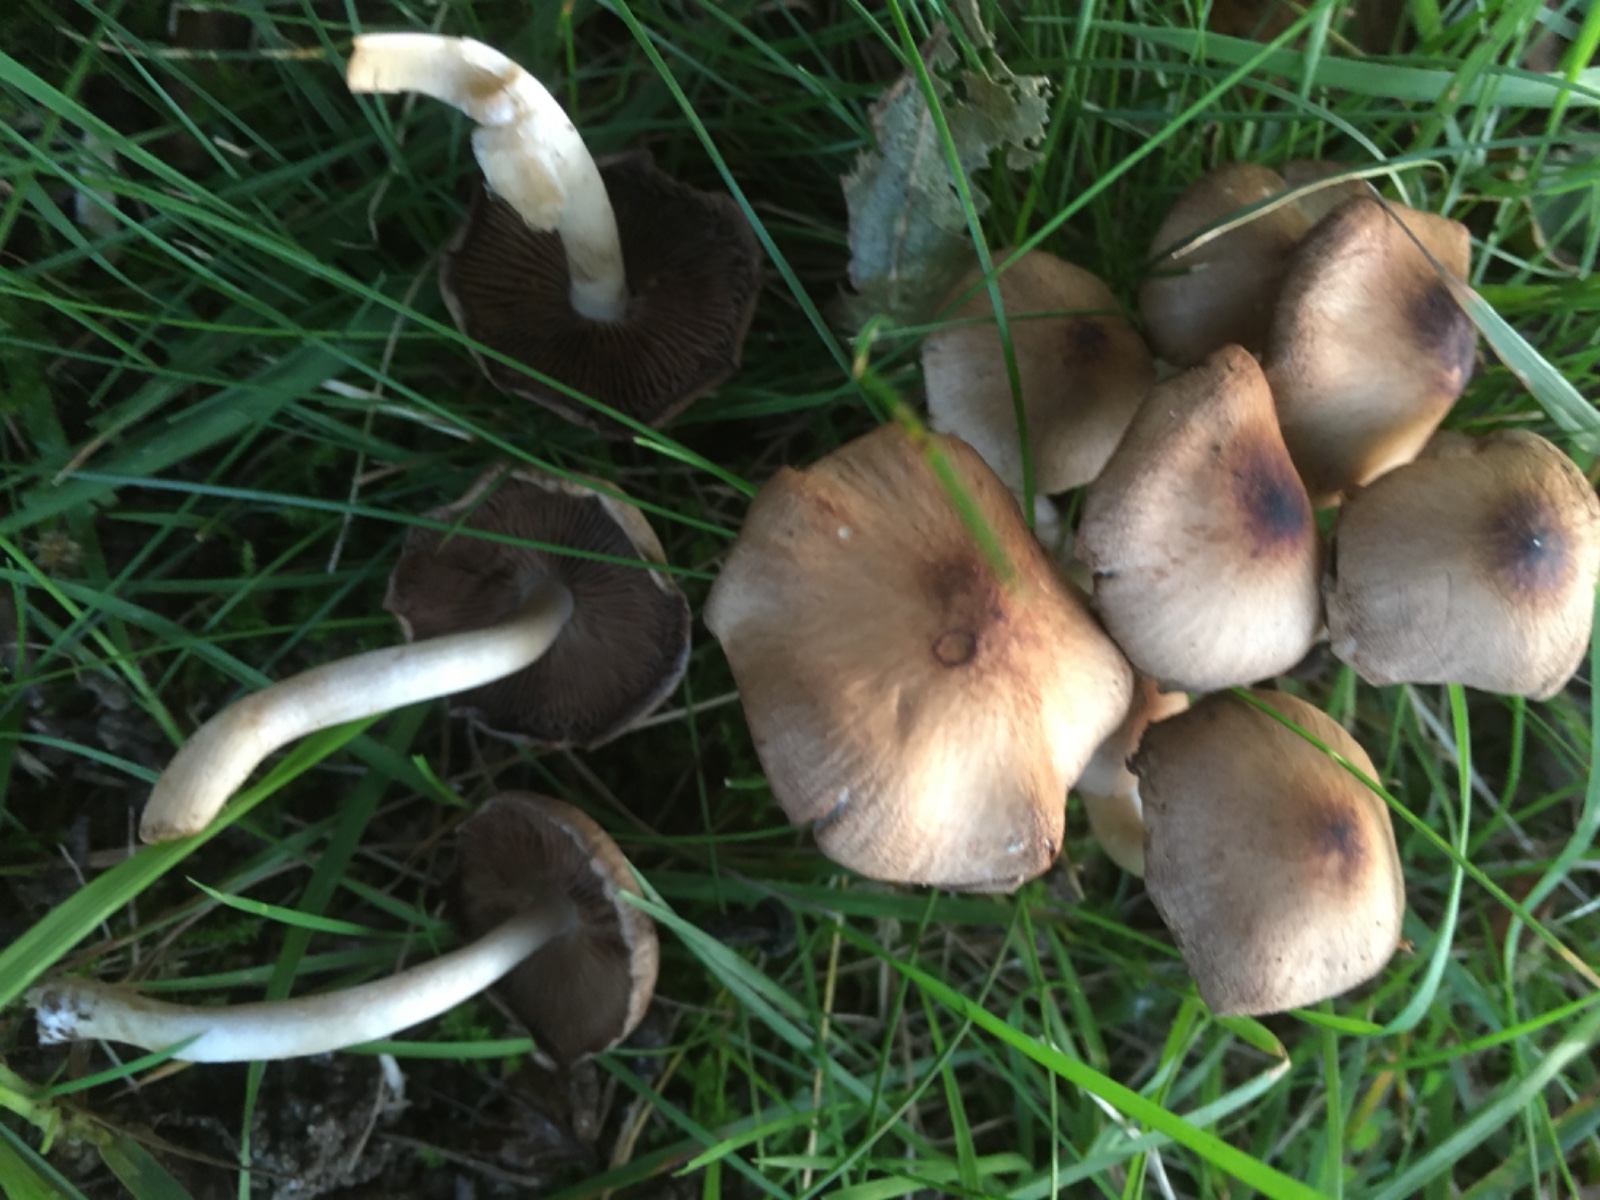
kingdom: Fungi
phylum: Basidiomycota
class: Agaricomycetes
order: Agaricales
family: Psathyrellaceae
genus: Psathyrella
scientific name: Psathyrella piluliformis
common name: lysstokket mørkhat
